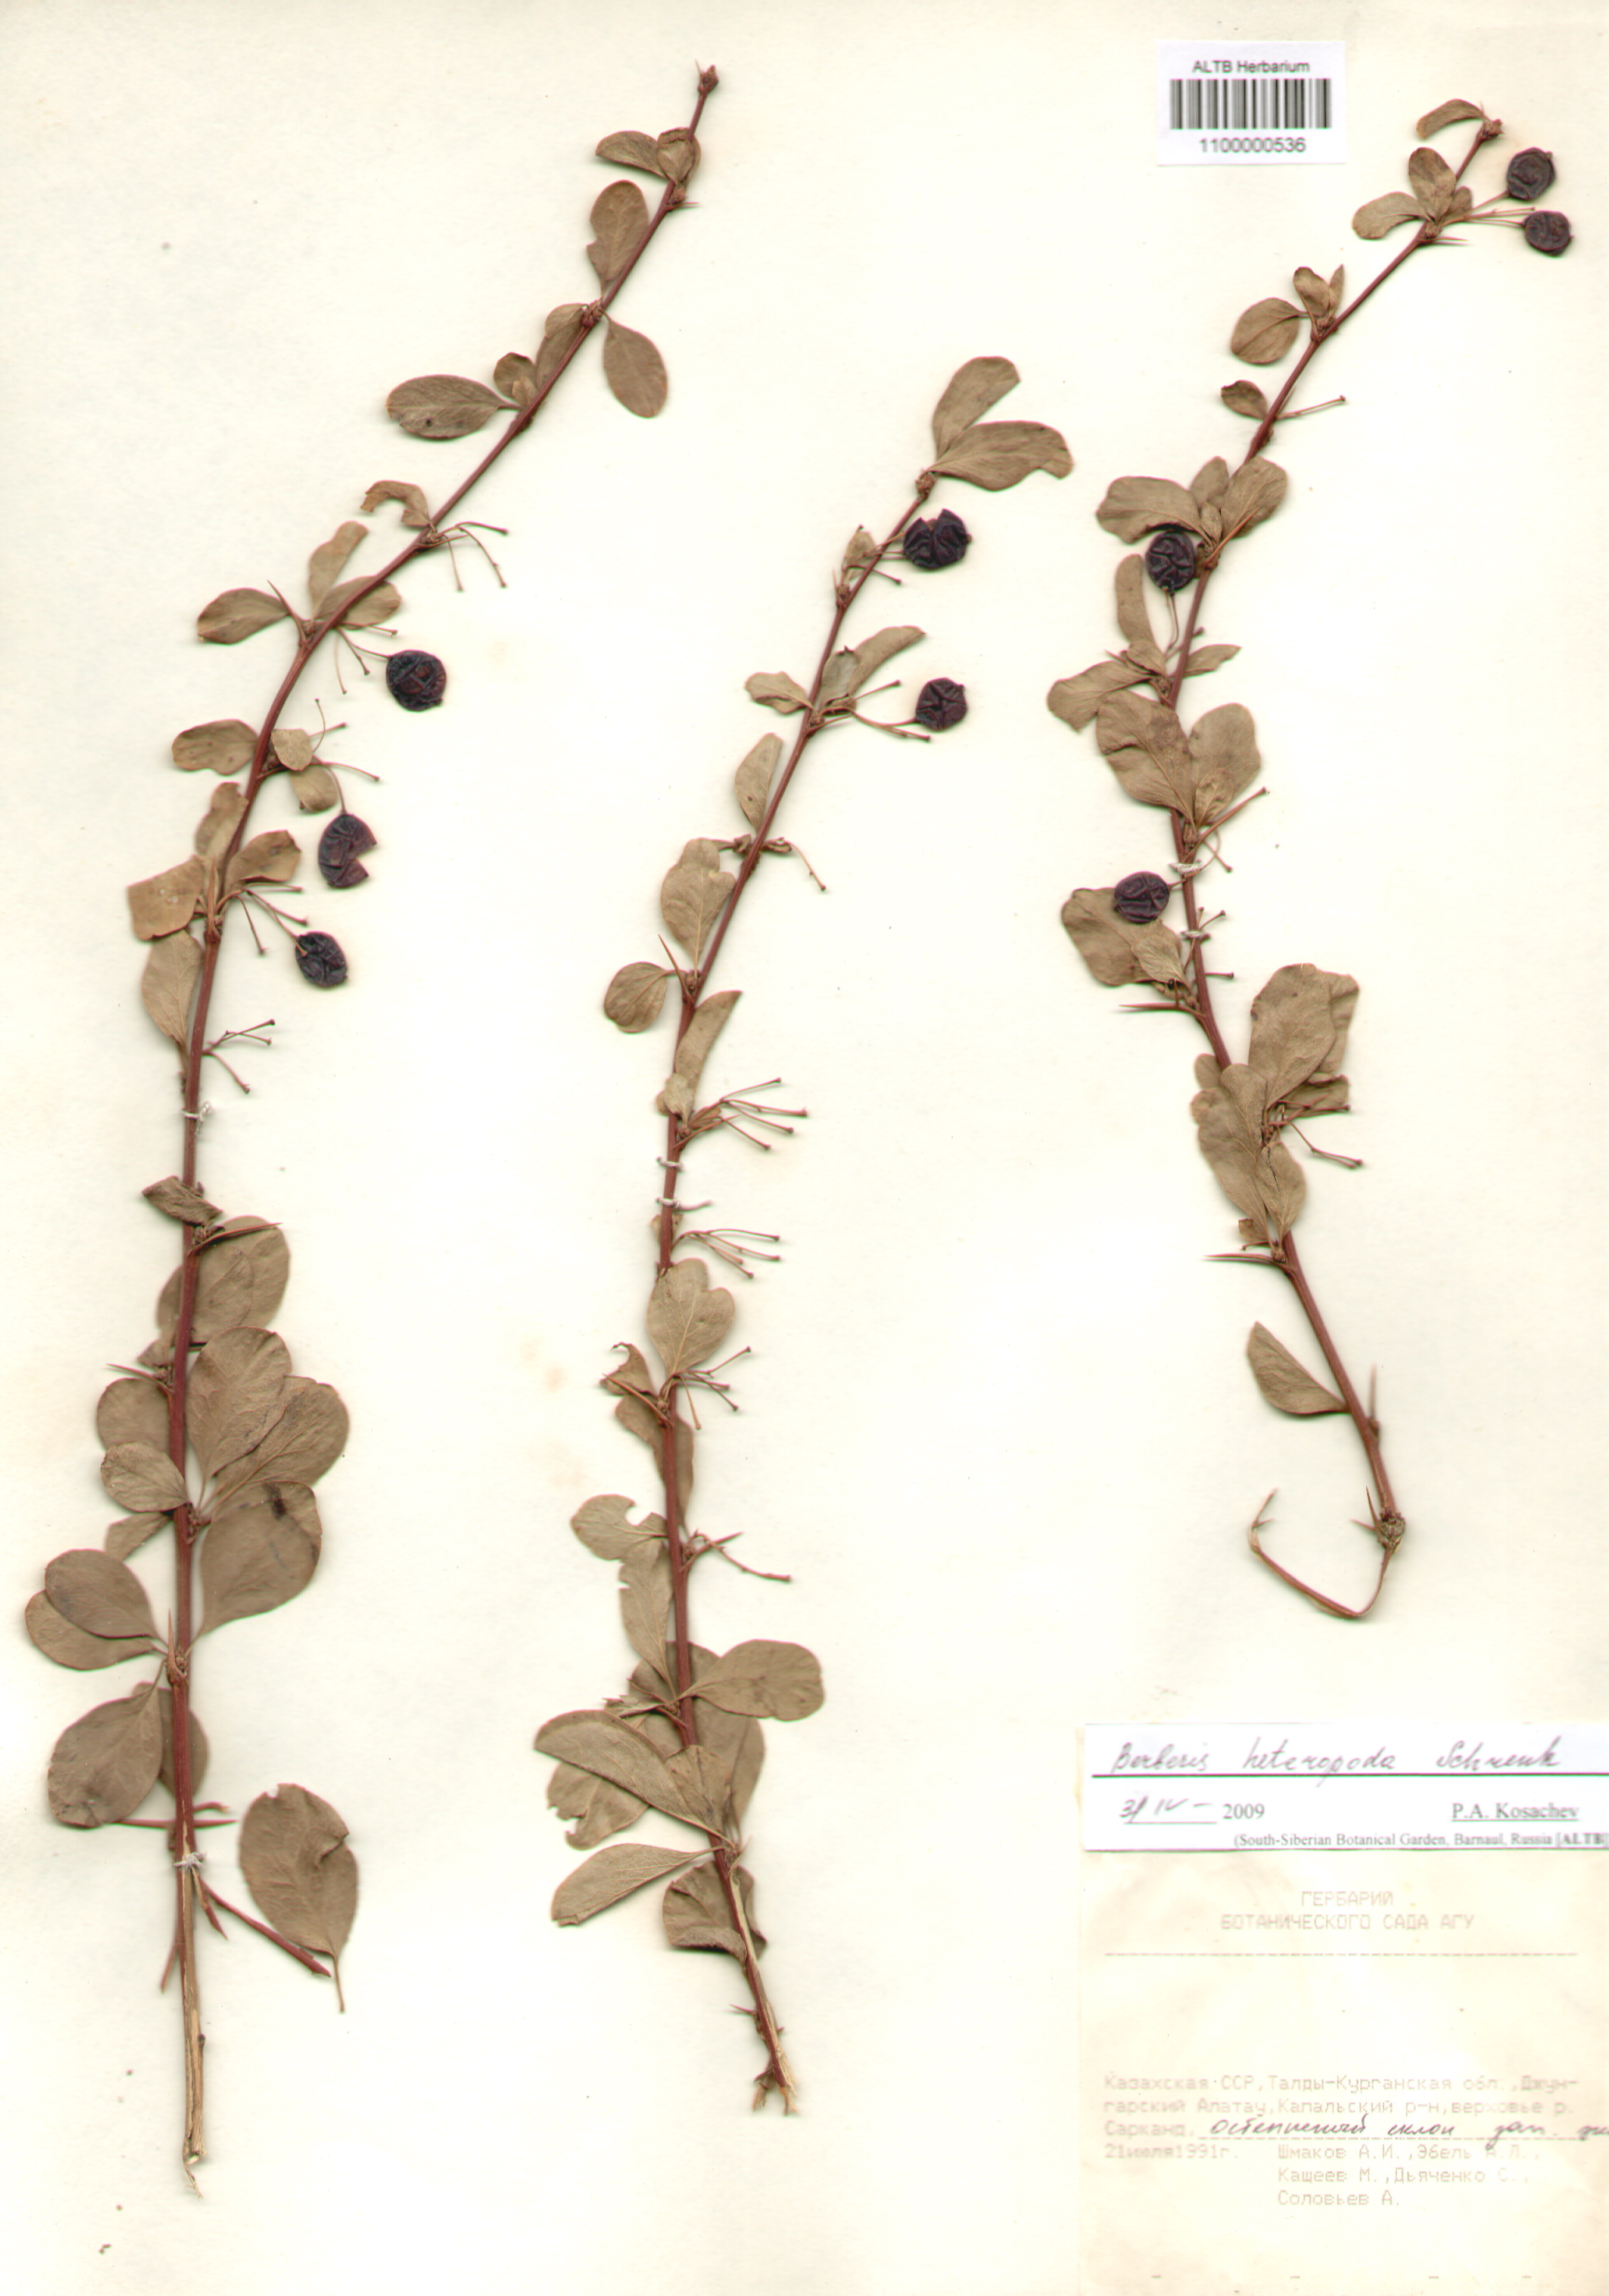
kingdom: Plantae
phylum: Tracheophyta
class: Magnoliopsida
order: Ranunculales
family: Berberidaceae
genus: Berberis
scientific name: Berberis heteropoda
